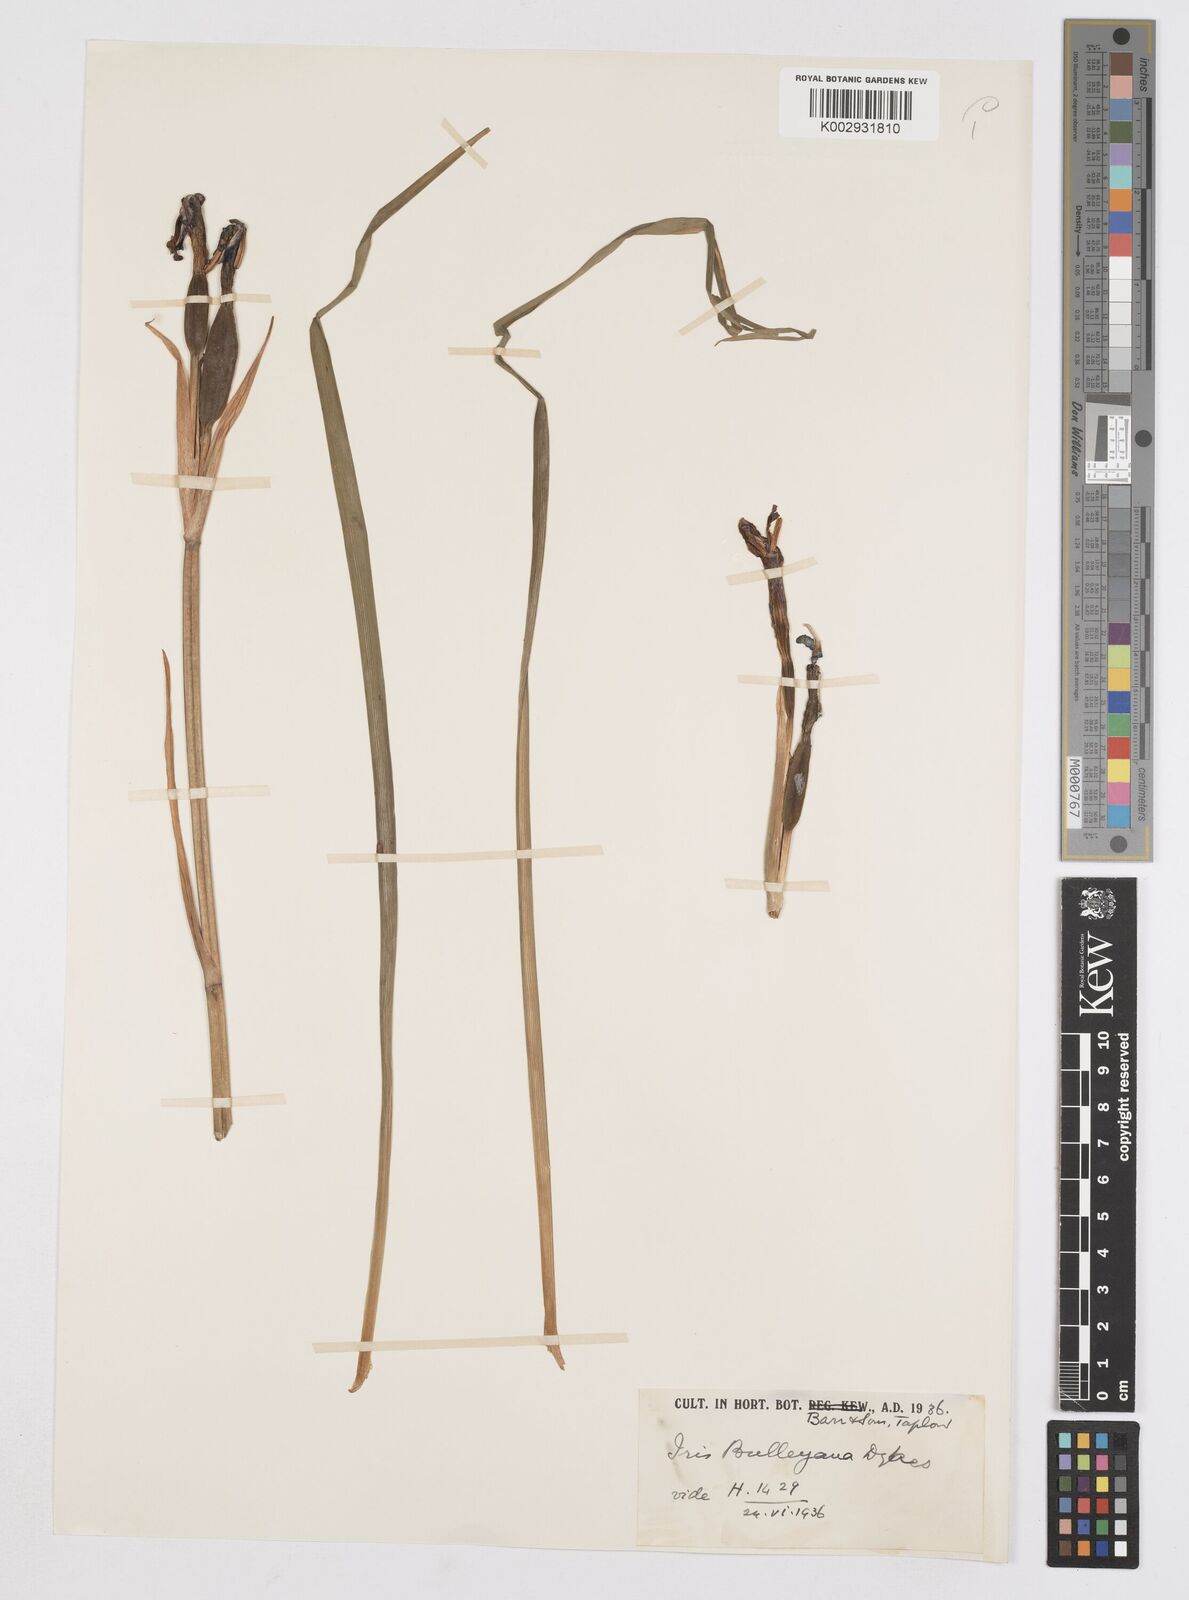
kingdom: Plantae
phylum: Tracheophyta
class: Liliopsida
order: Asparagales
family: Iridaceae
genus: Iris
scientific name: Iris clarkei
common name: Tibet iris
